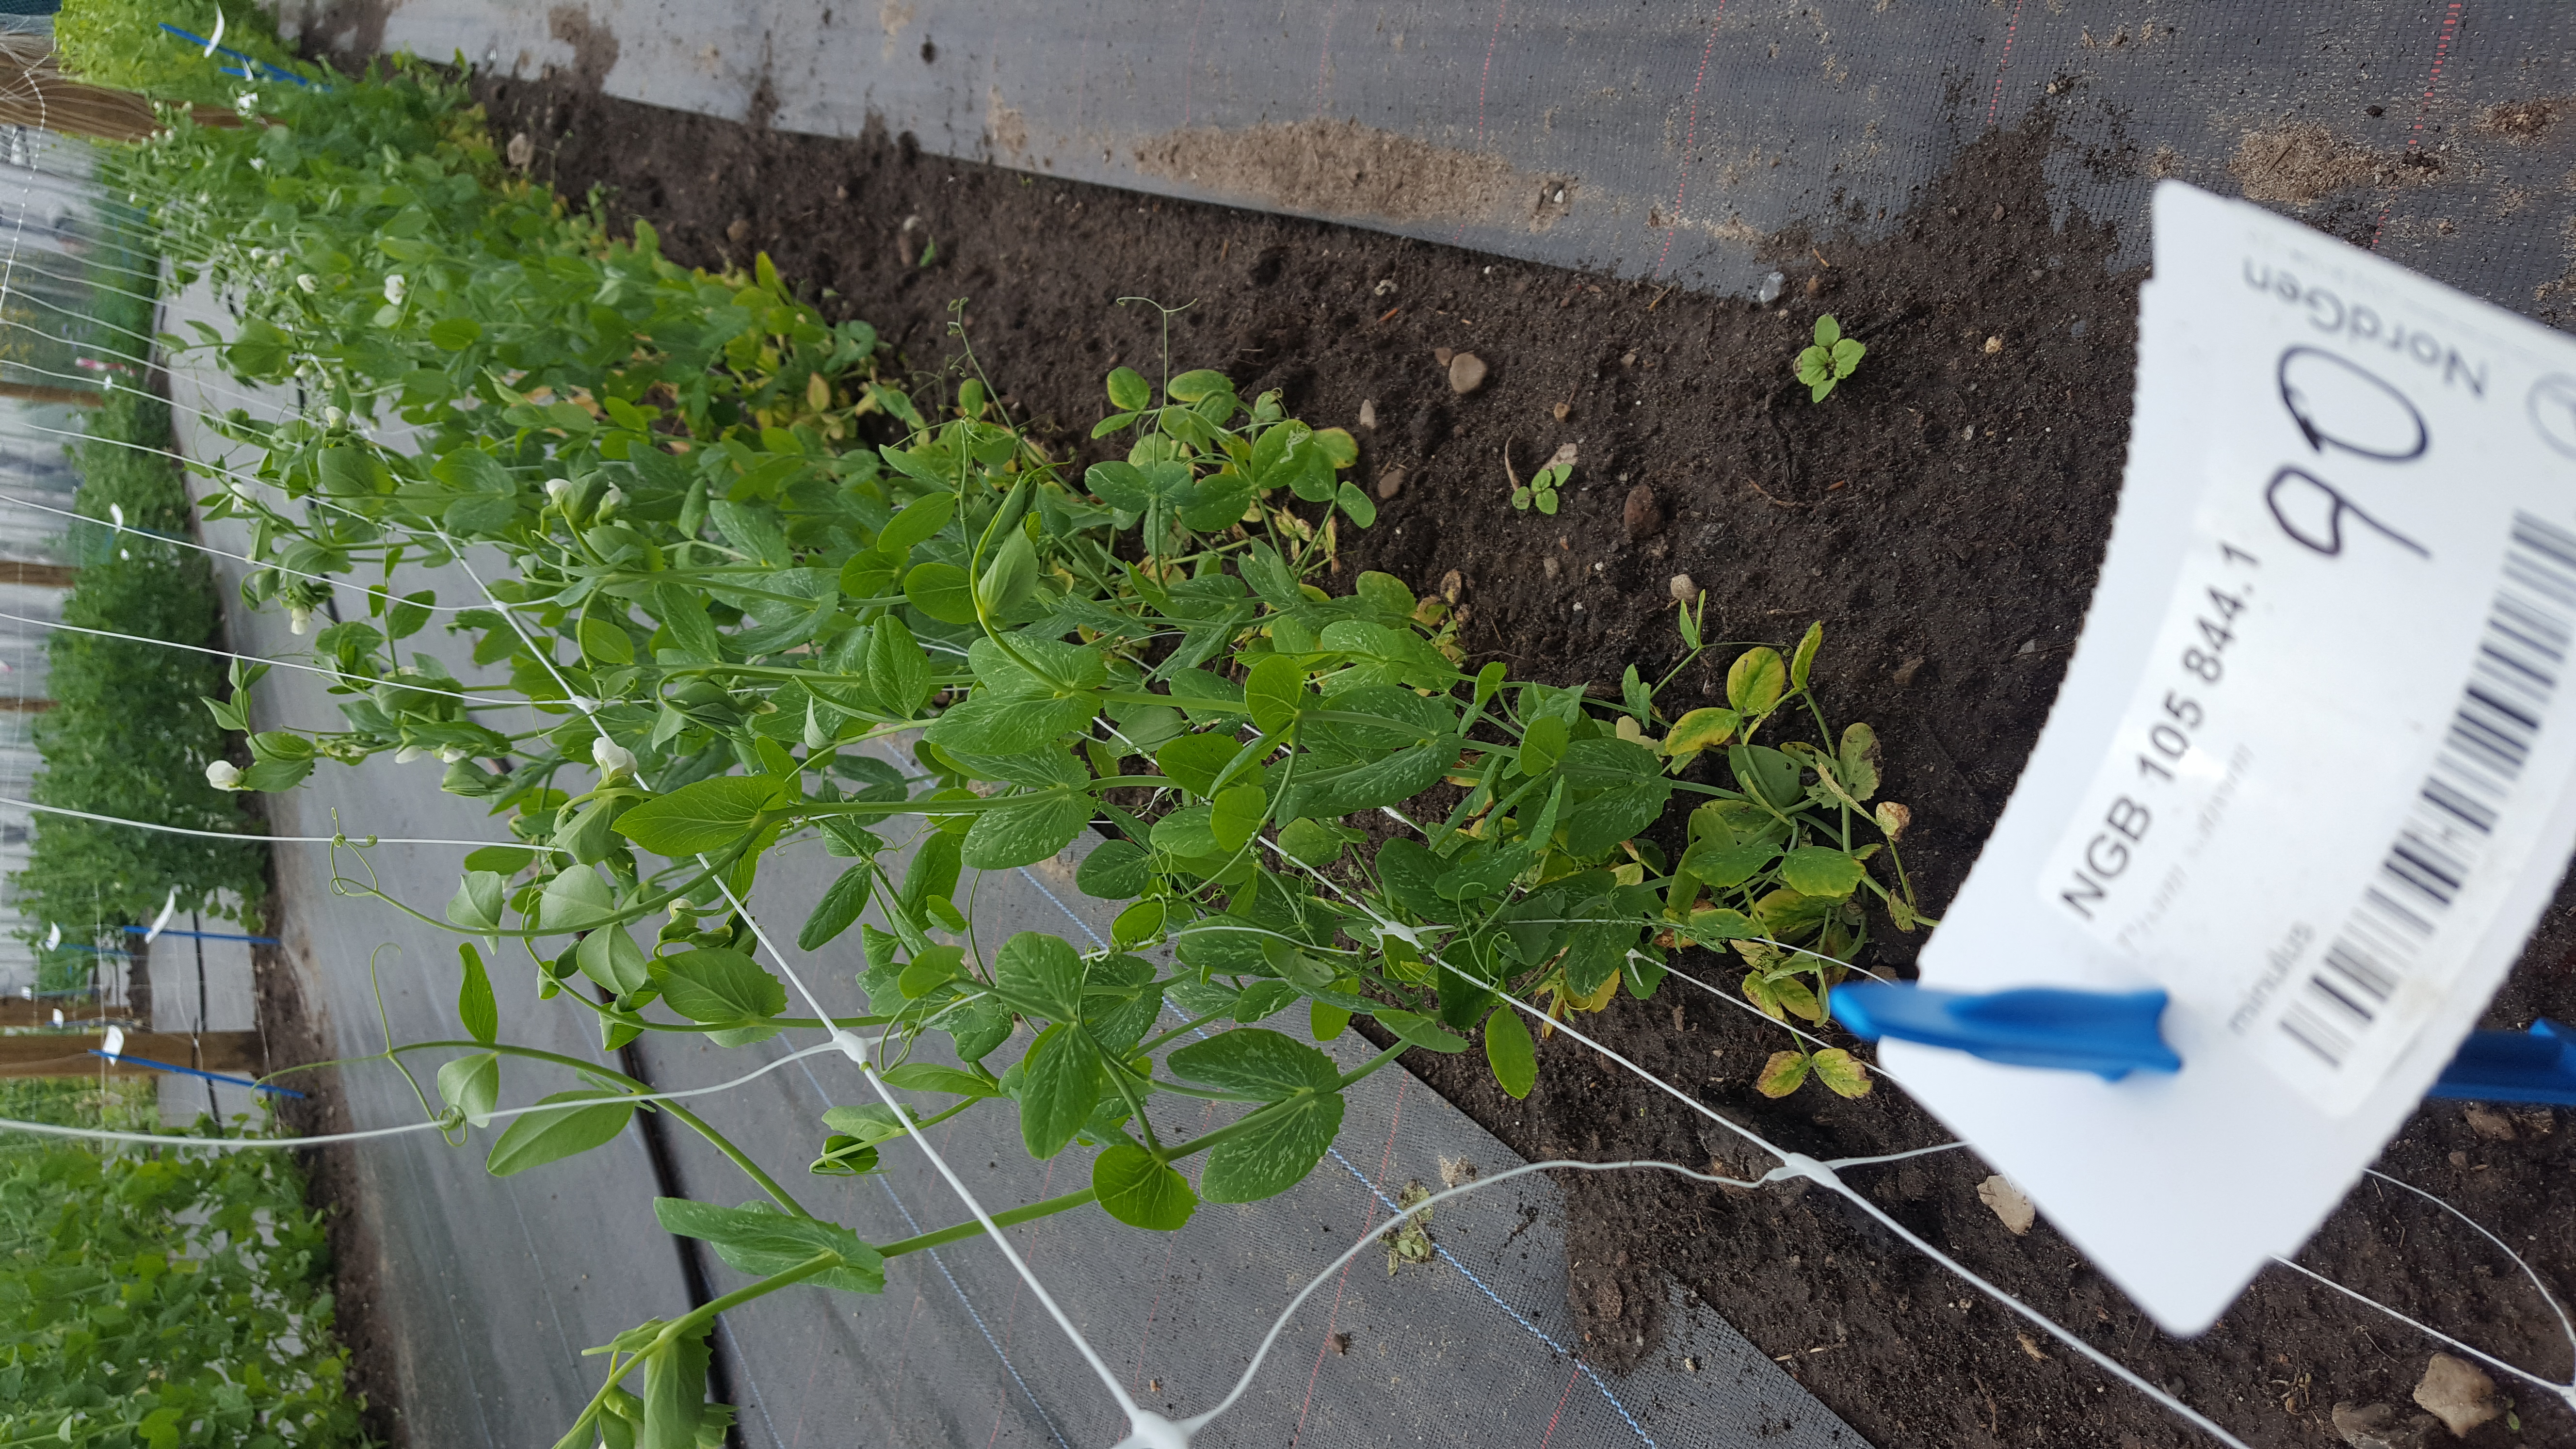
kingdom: Plantae
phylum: Tracheophyta
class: Magnoliopsida
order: Fabales
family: Fabaceae
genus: Lathyrus
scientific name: Lathyrus oleraceus
